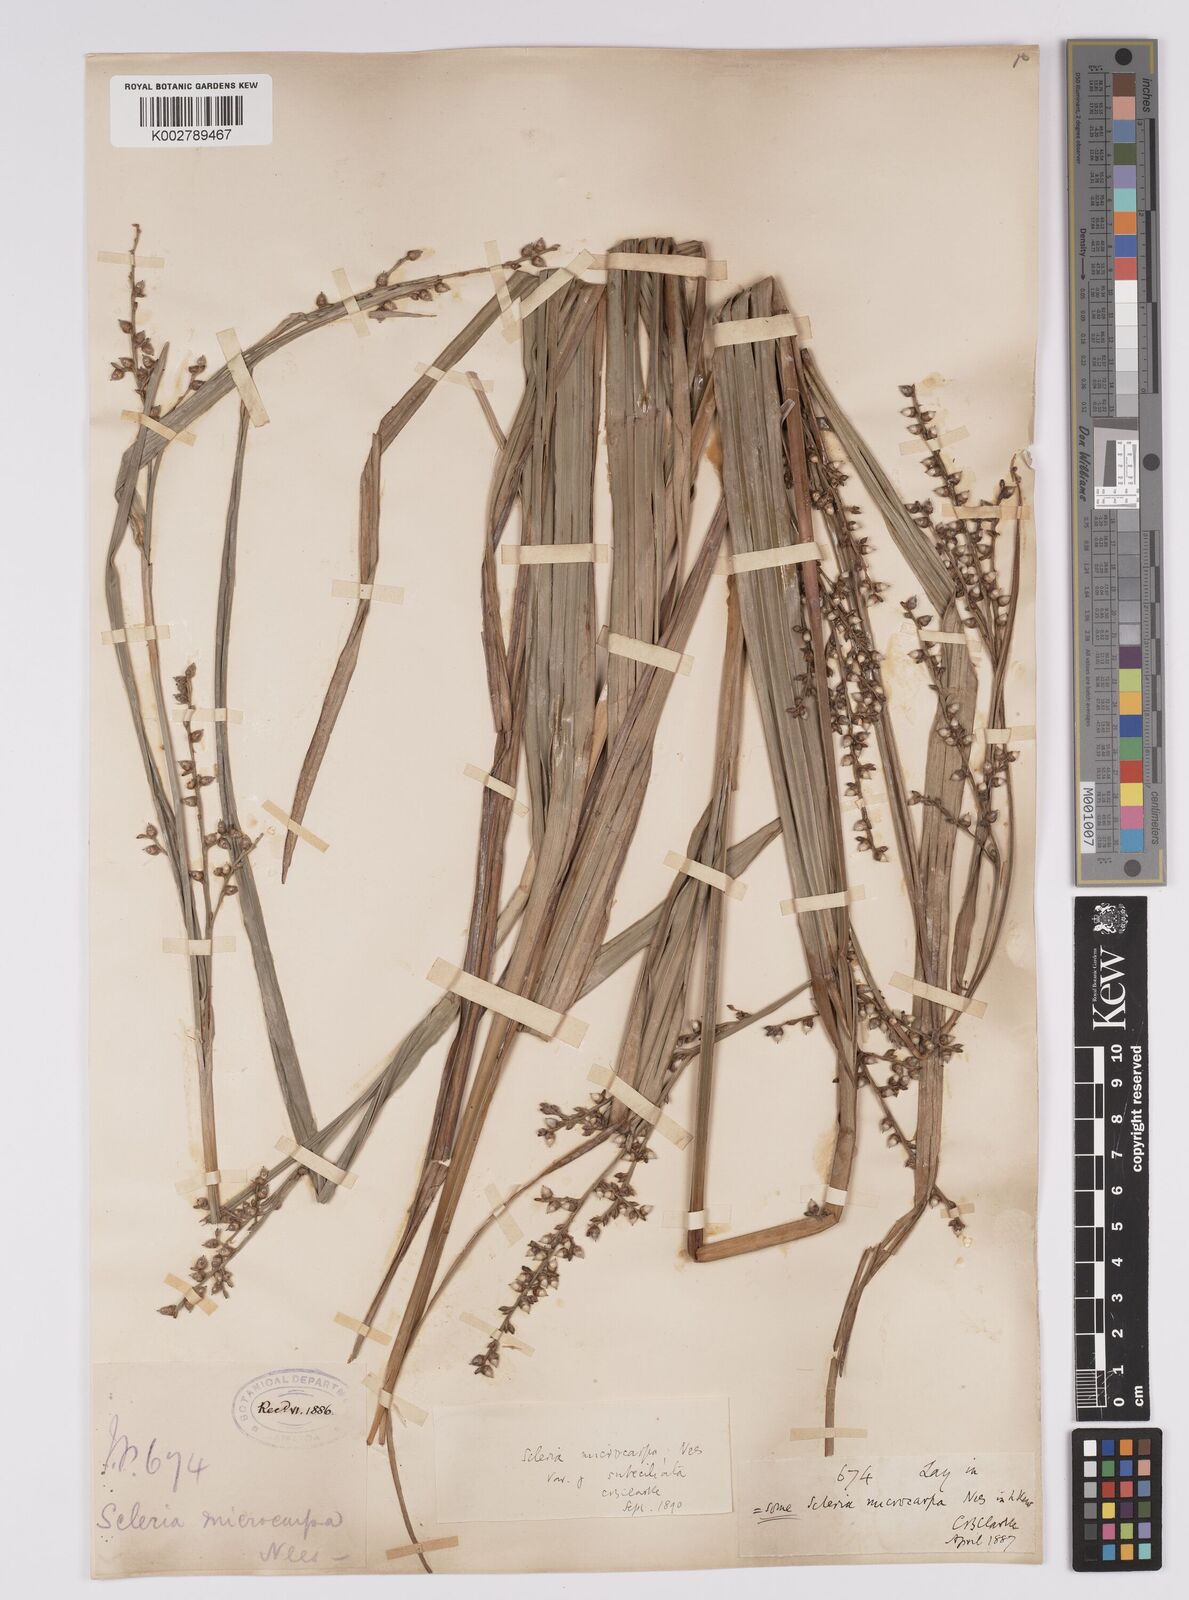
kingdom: Plantae
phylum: Tracheophyta
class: Liliopsida
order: Poales
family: Cyperaceae
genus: Scleria
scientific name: Scleria mucronata
